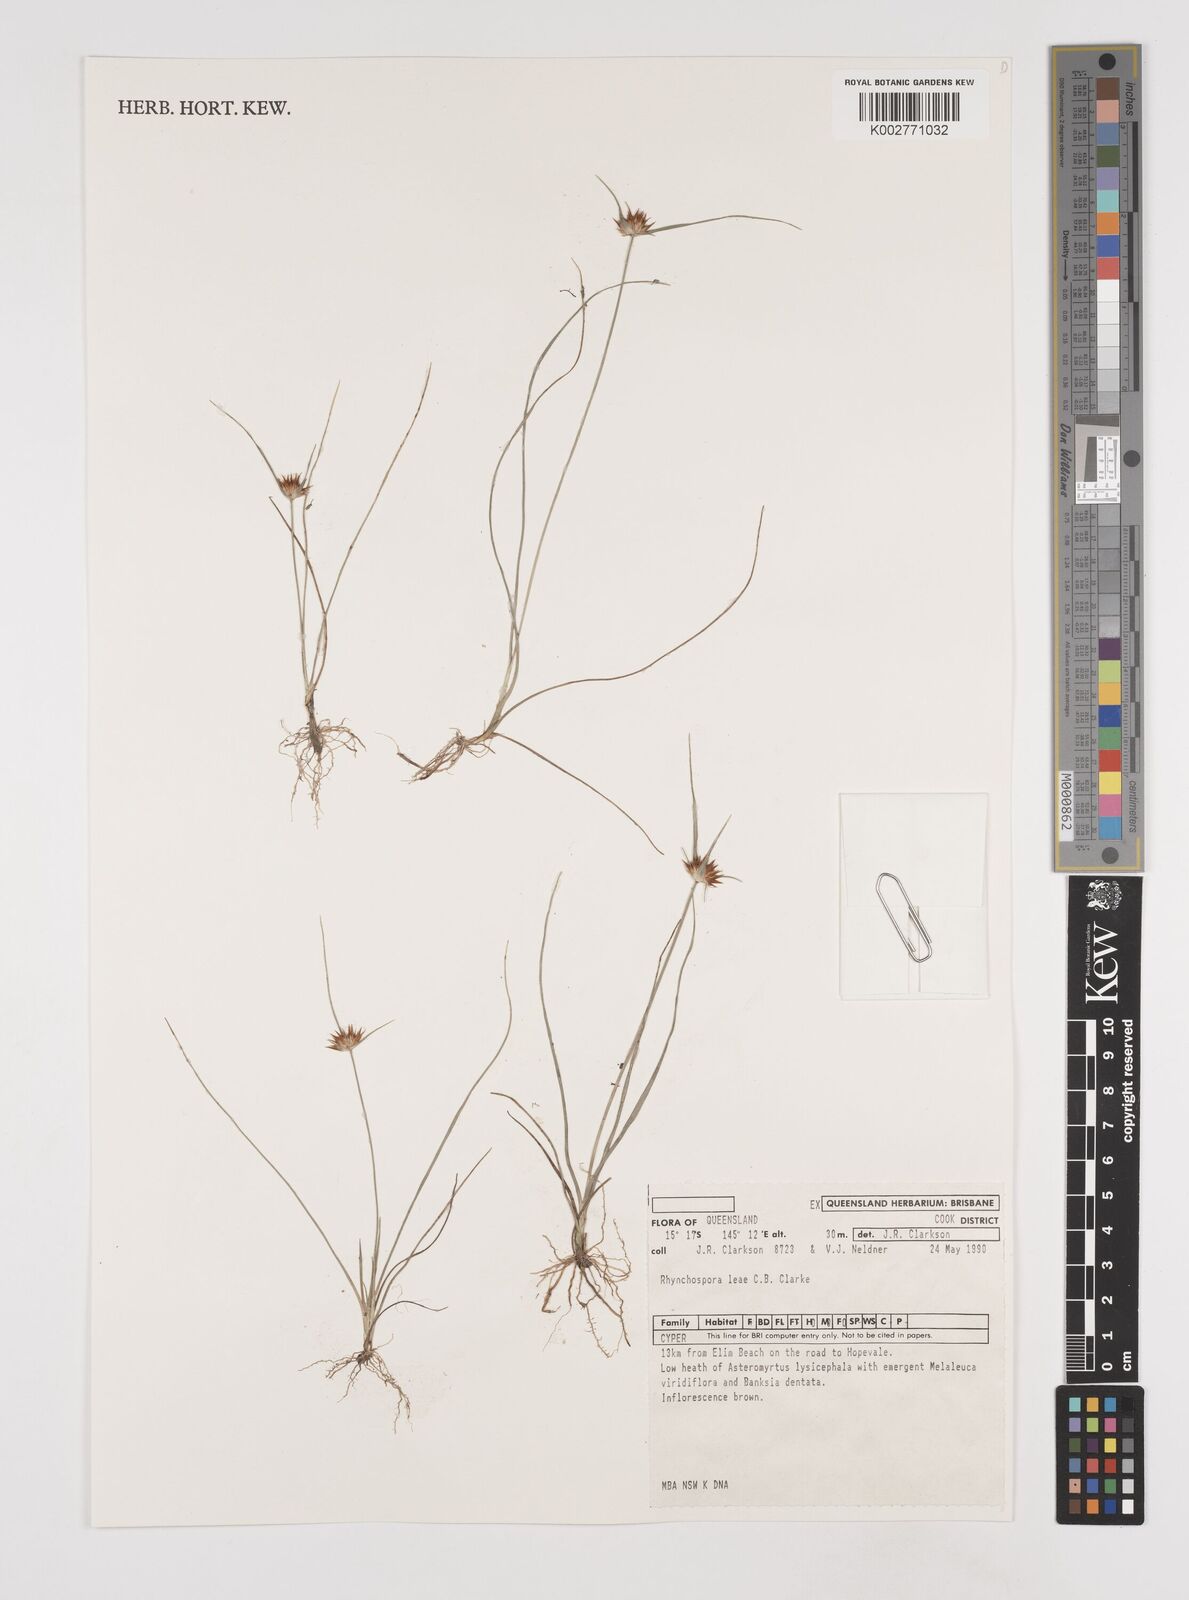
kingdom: Plantae
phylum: Tracheophyta
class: Liliopsida
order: Poales
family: Cyperaceae
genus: Rhynchospora
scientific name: Rhynchospora leae
